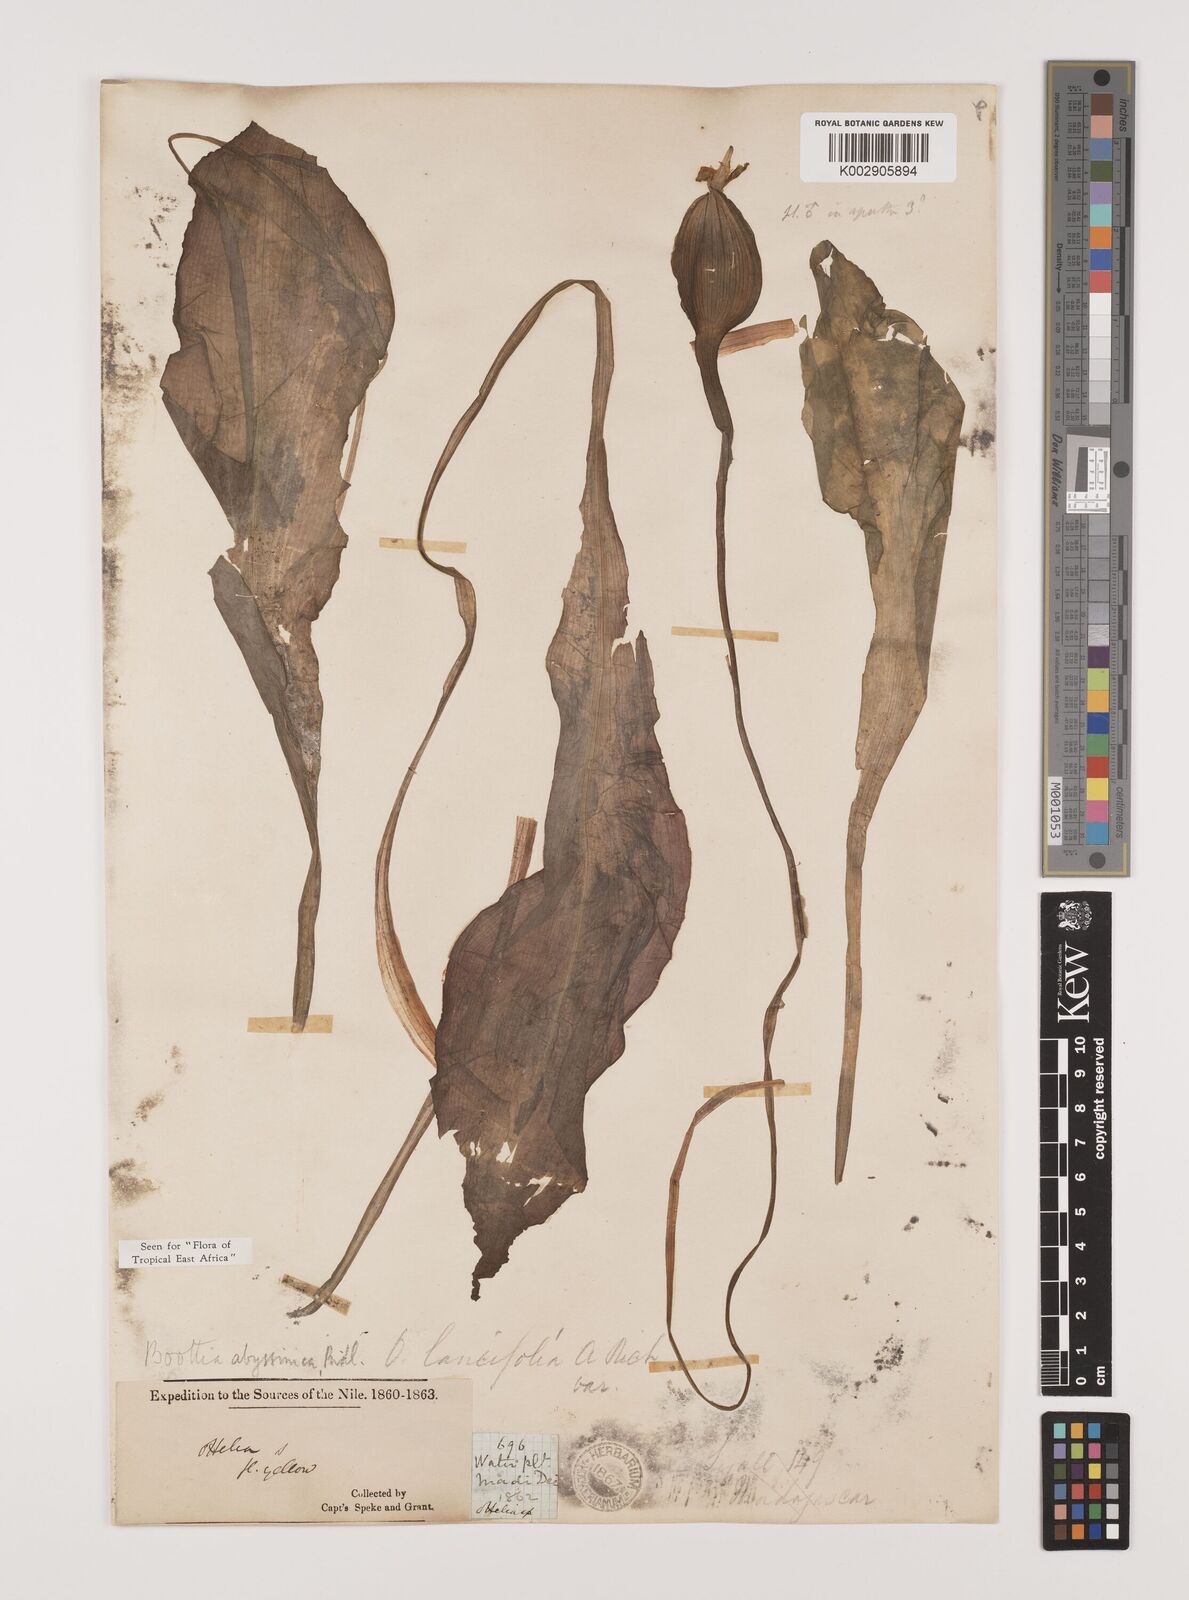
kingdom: Plantae
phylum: Tracheophyta
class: Liliopsida
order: Alismatales
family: Hydrocharitaceae
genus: Ottelia
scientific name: Ottelia ulvifolia
